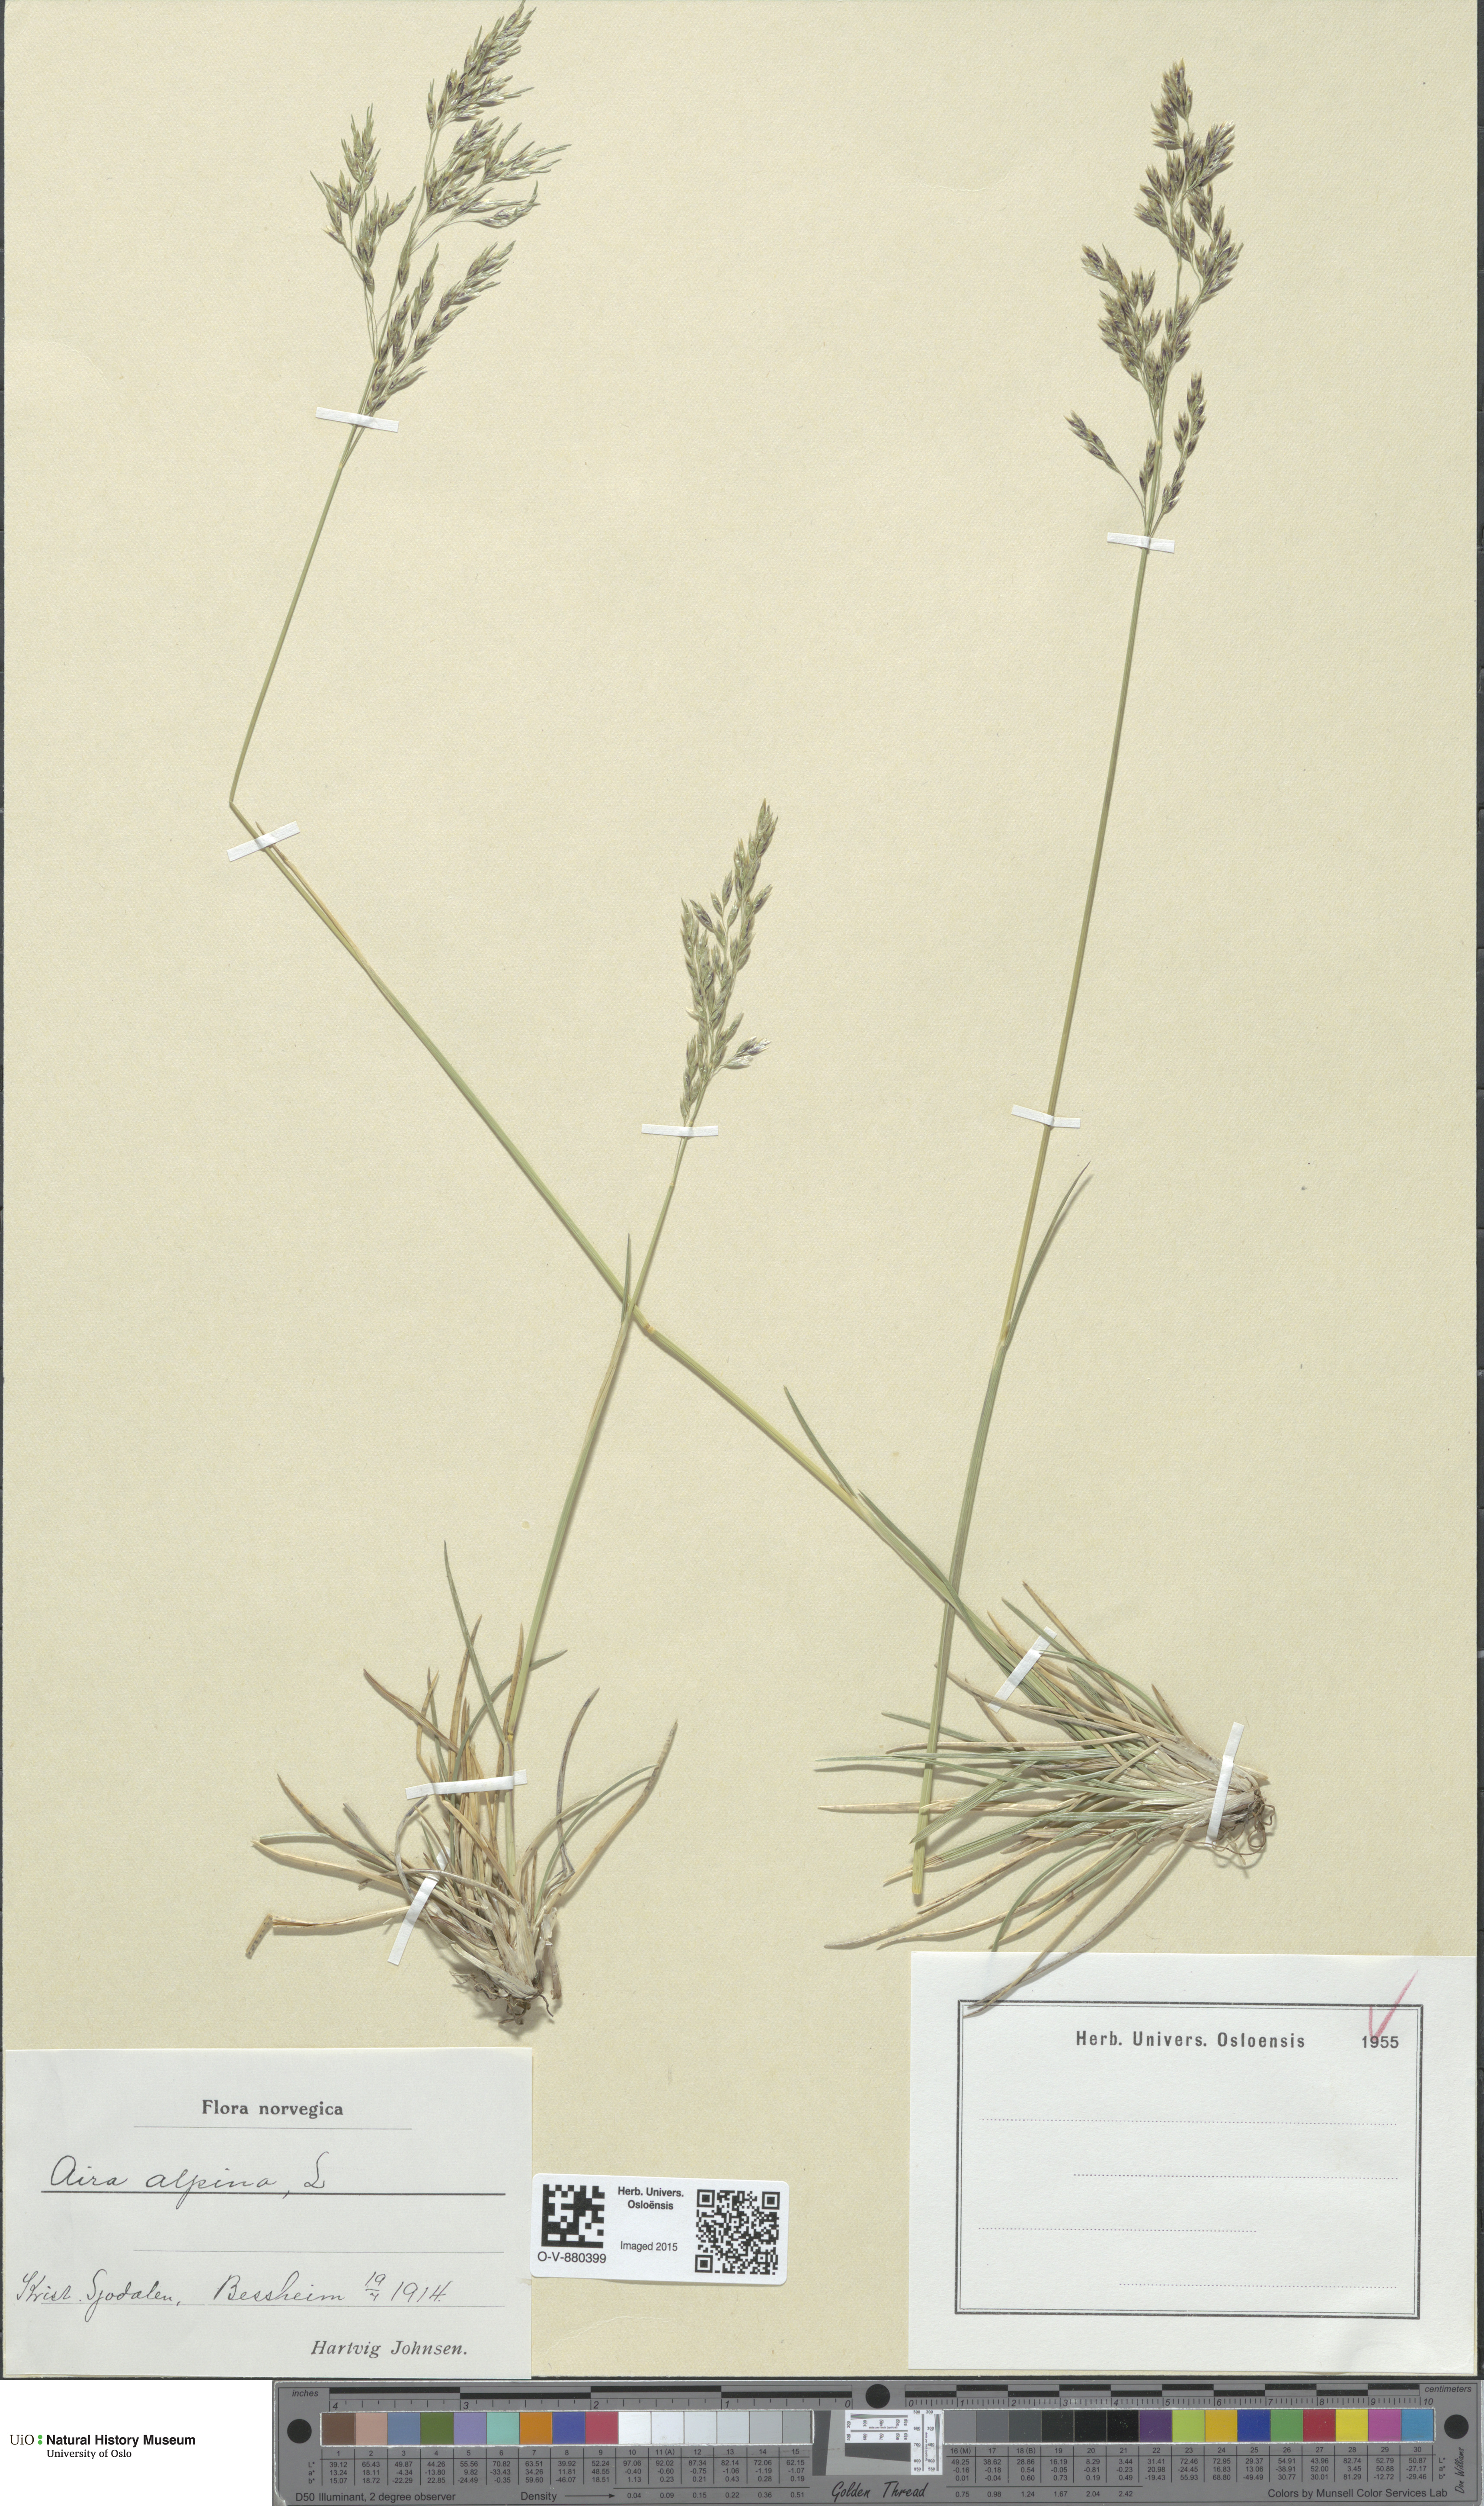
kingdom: Plantae
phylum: Tracheophyta
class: Liliopsida
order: Poales
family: Poaceae
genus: Deschampsia
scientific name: Deschampsia cespitosa
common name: Tufted hair-grass
